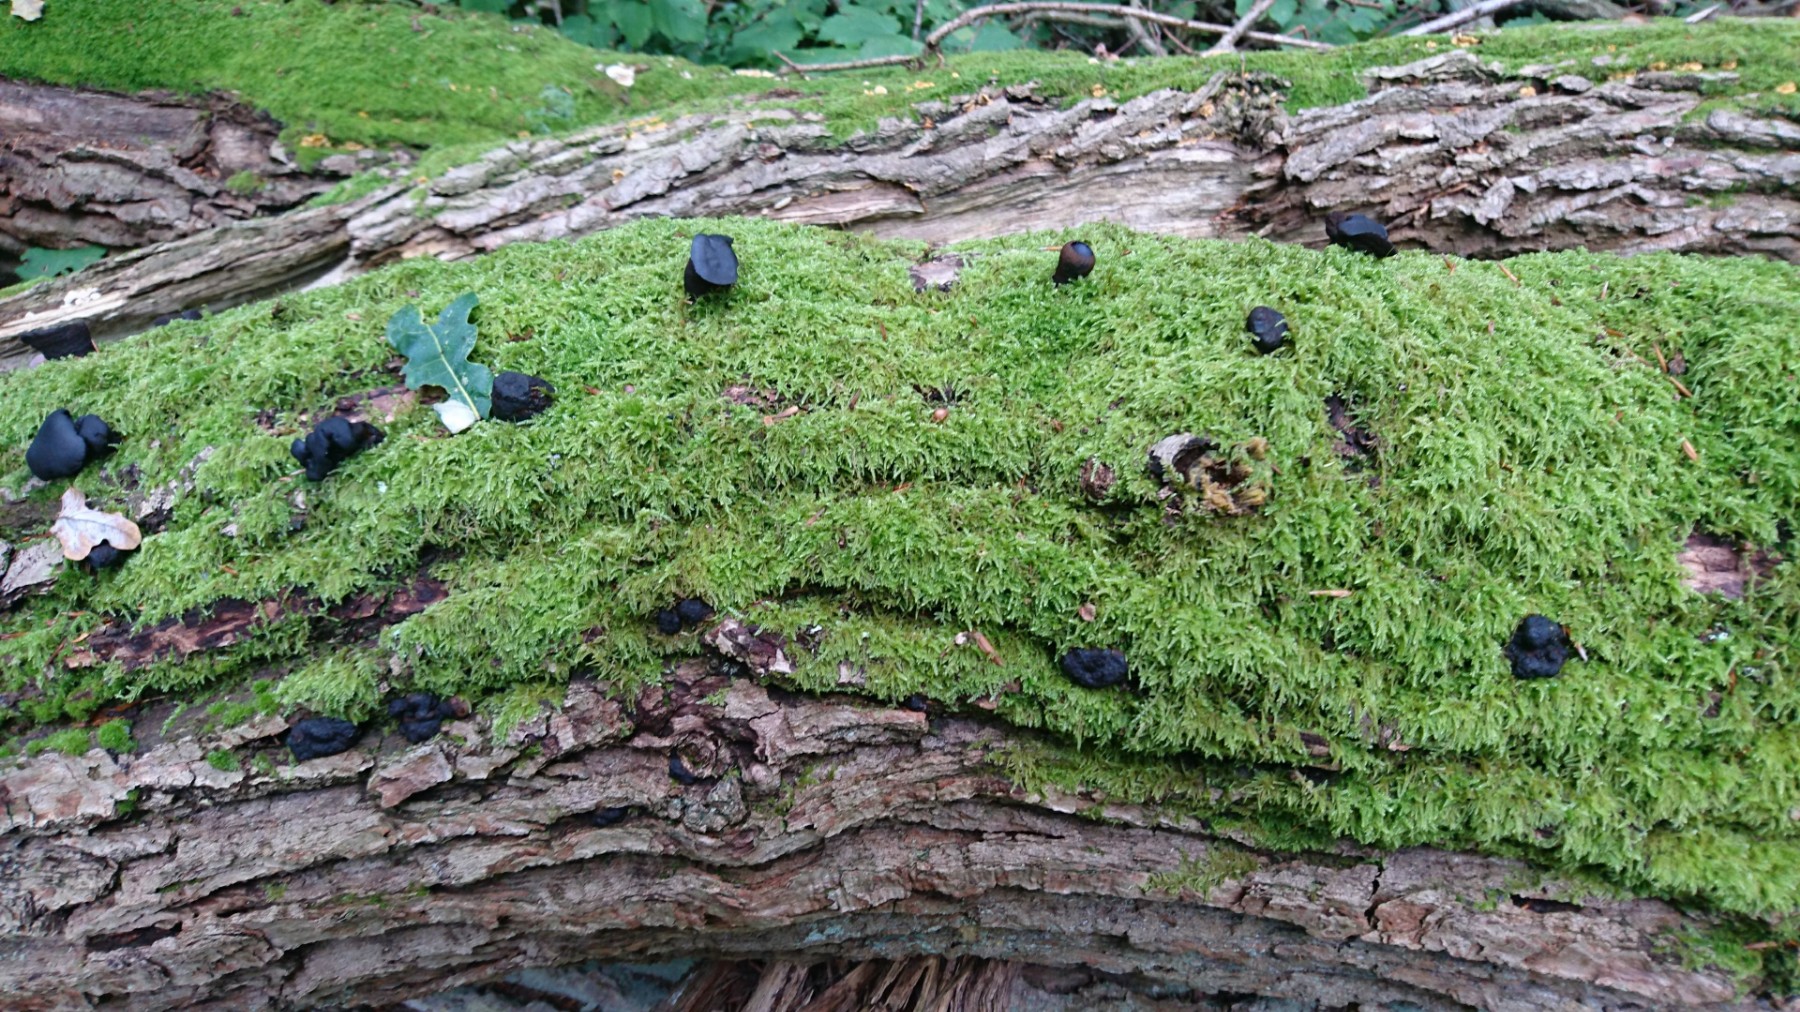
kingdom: Fungi
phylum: Ascomycota
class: Leotiomycetes
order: Phacidiales
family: Phacidiaceae
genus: Bulgaria
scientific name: Bulgaria inquinans
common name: afsmittende topsvamp
